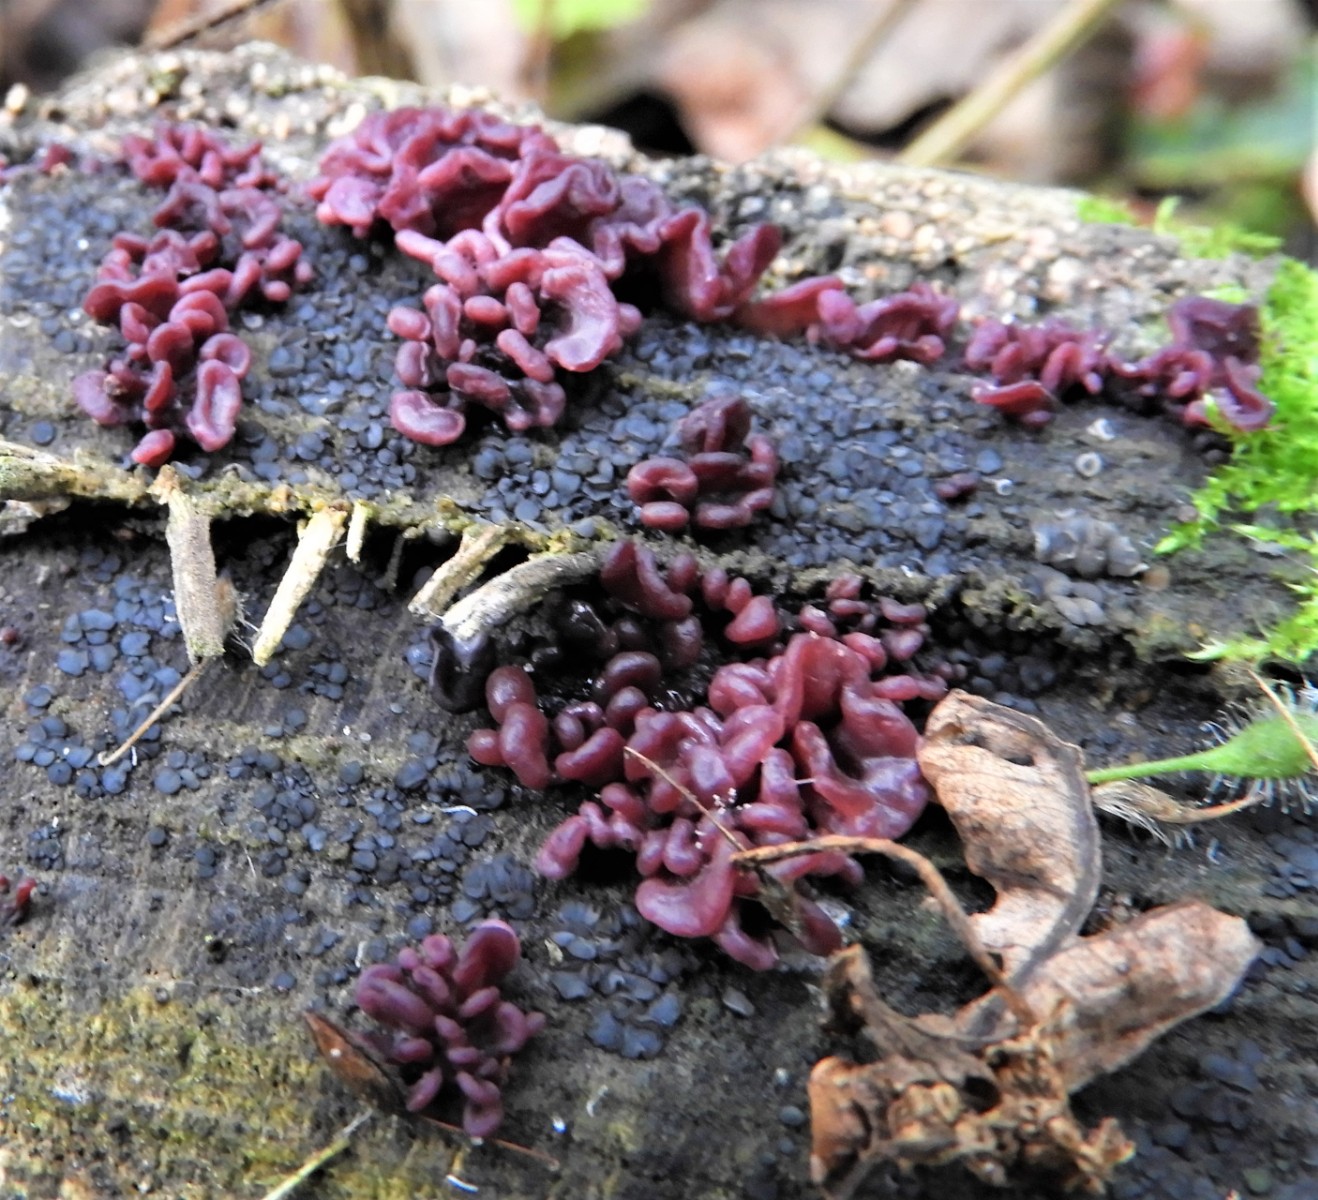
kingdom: Fungi
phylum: Ascomycota
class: Leotiomycetes
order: Helotiales
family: Gelatinodiscaceae
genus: Ascocoryne
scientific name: Ascocoryne sarcoides
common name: rødlilla sejskive
